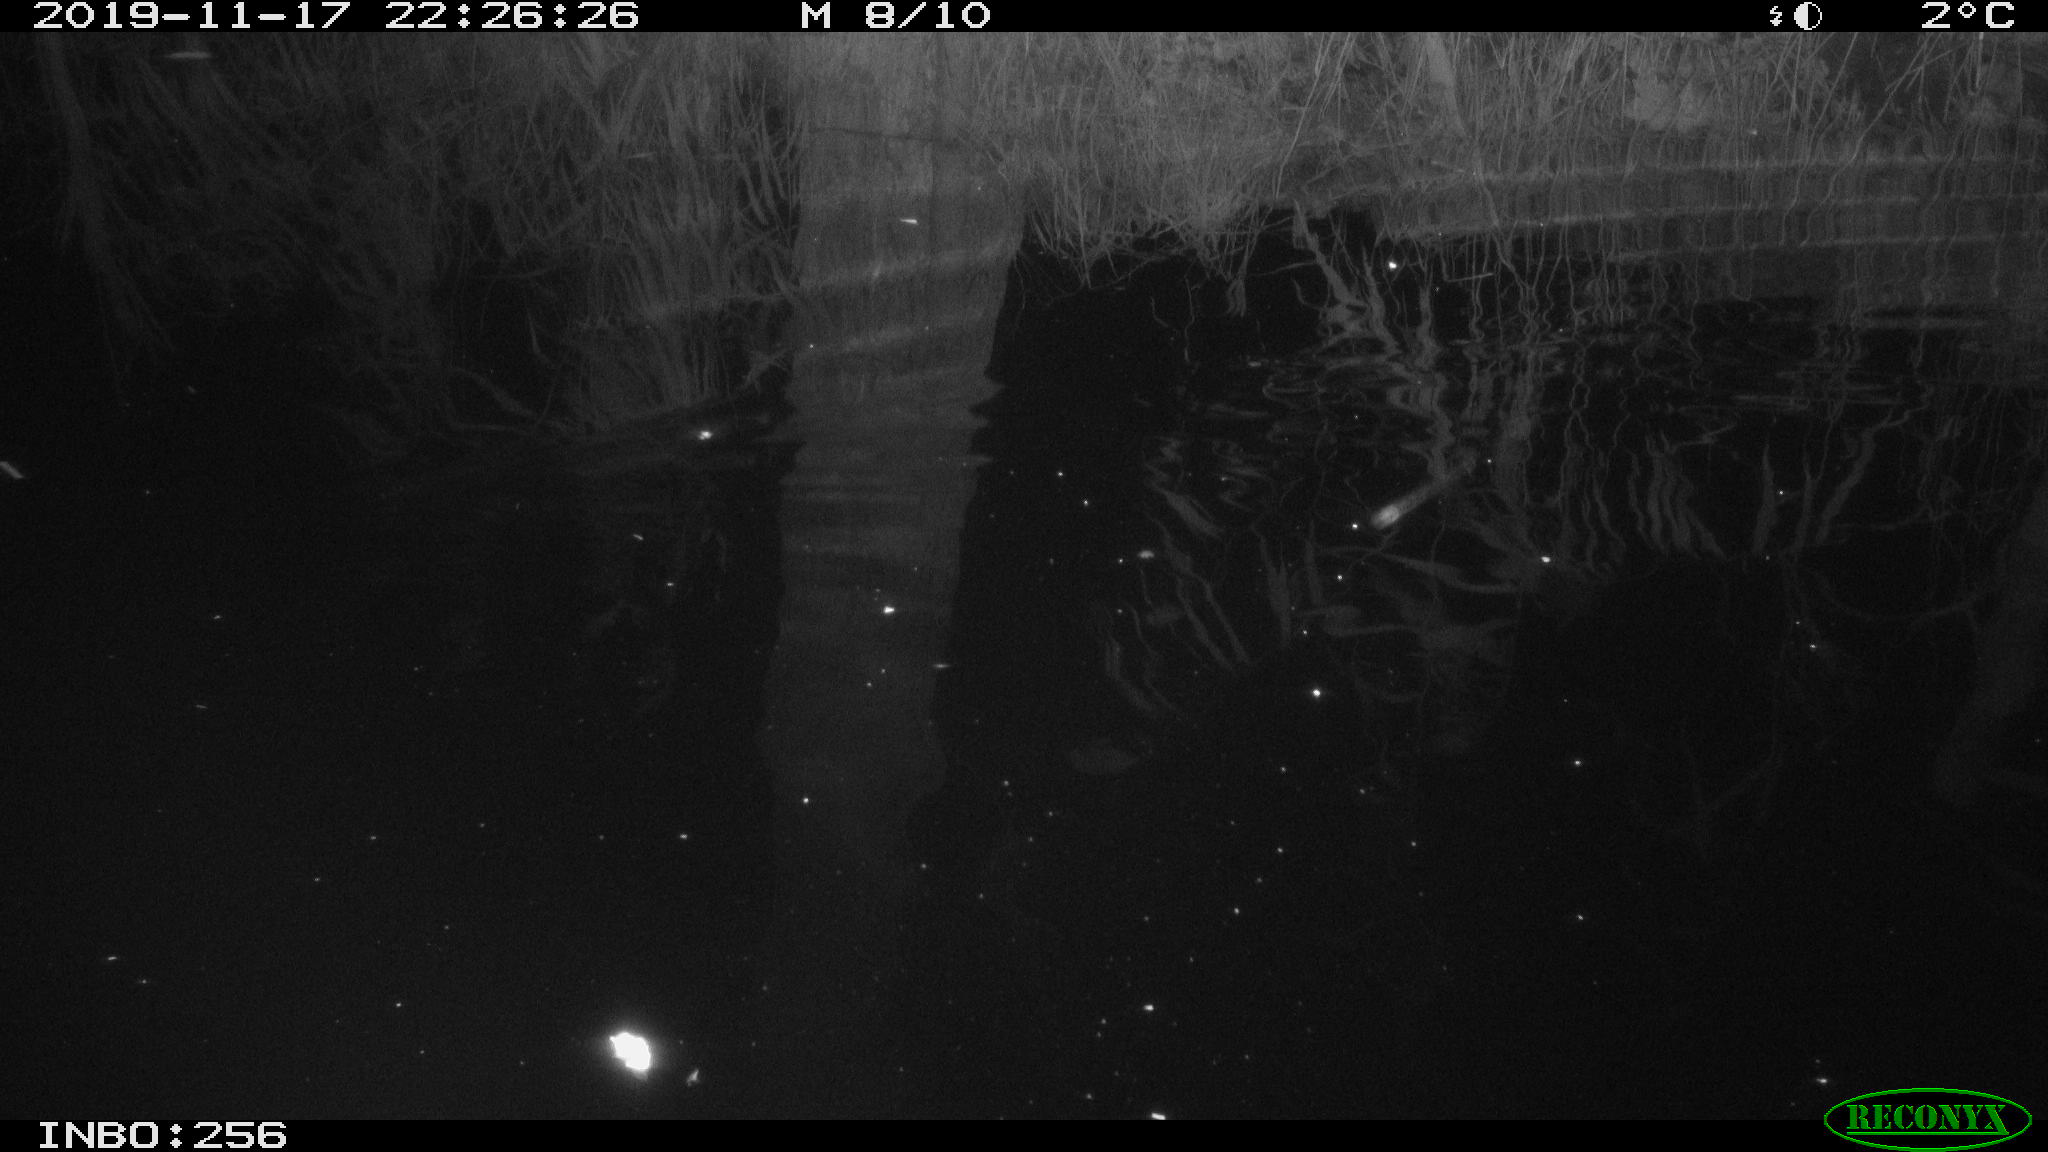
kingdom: Animalia
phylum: Chordata
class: Mammalia
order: Rodentia
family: Muridae
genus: Rattus
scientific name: Rattus norvegicus
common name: Brown rat
